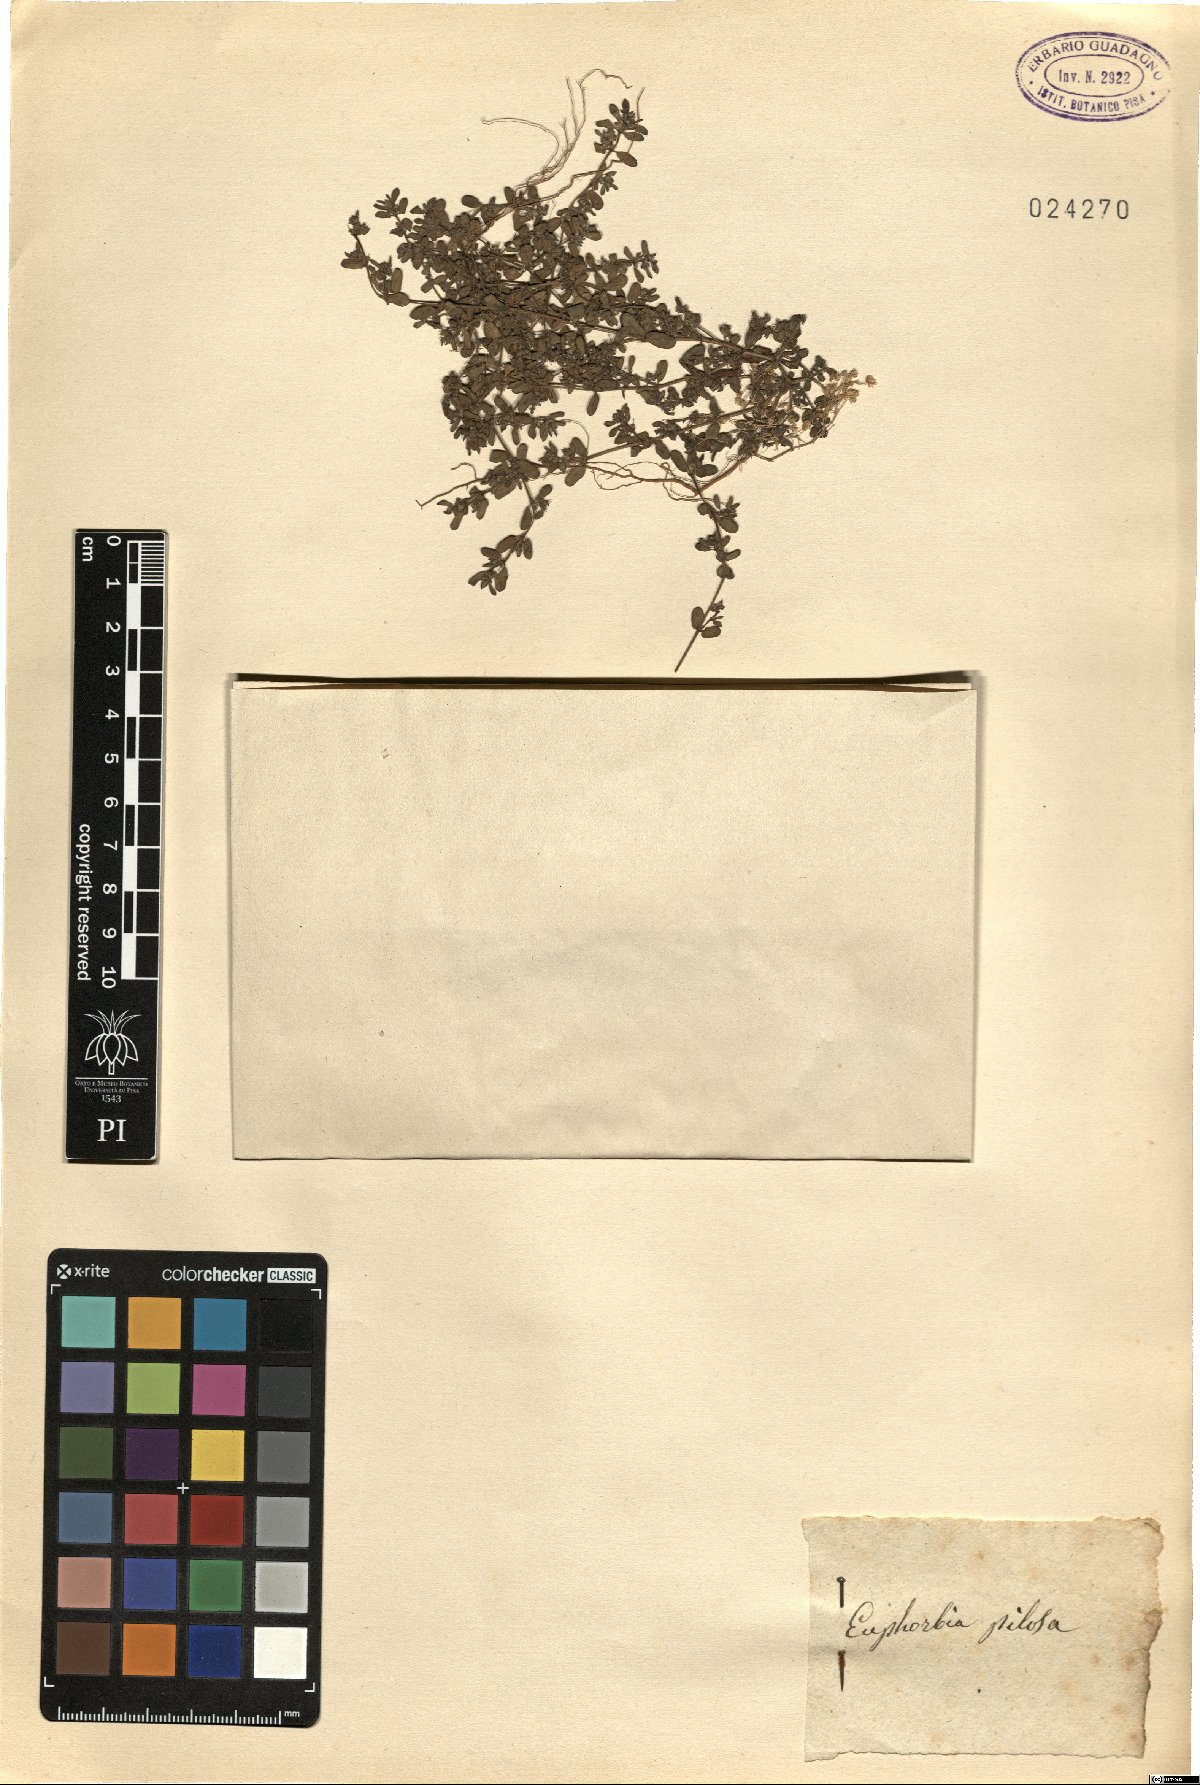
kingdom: Plantae
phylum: Tracheophyta
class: Magnoliopsida
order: Malpighiales
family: Euphorbiaceae
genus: Euphorbia
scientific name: Euphorbia pilosa
